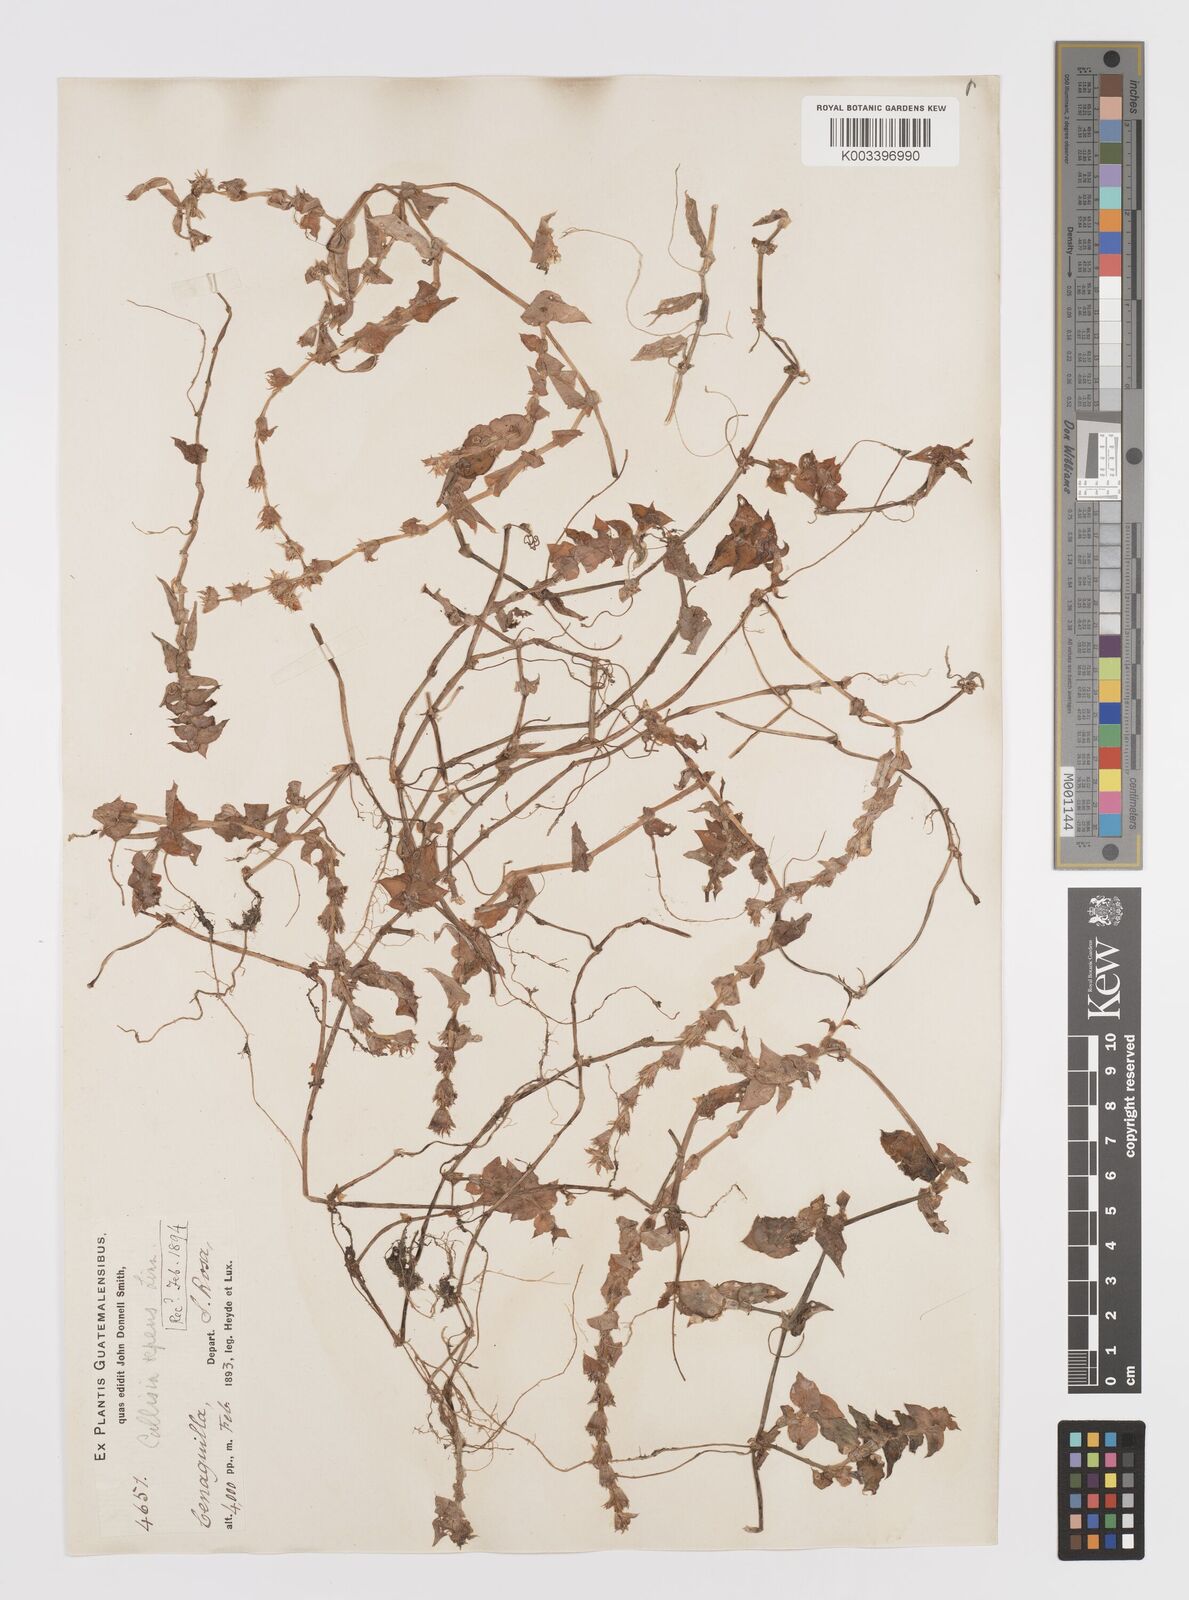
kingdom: Plantae
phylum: Tracheophyta
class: Liliopsida
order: Commelinales
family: Commelinaceae
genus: Callisia
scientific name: Callisia repens
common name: Creeping inchplant
